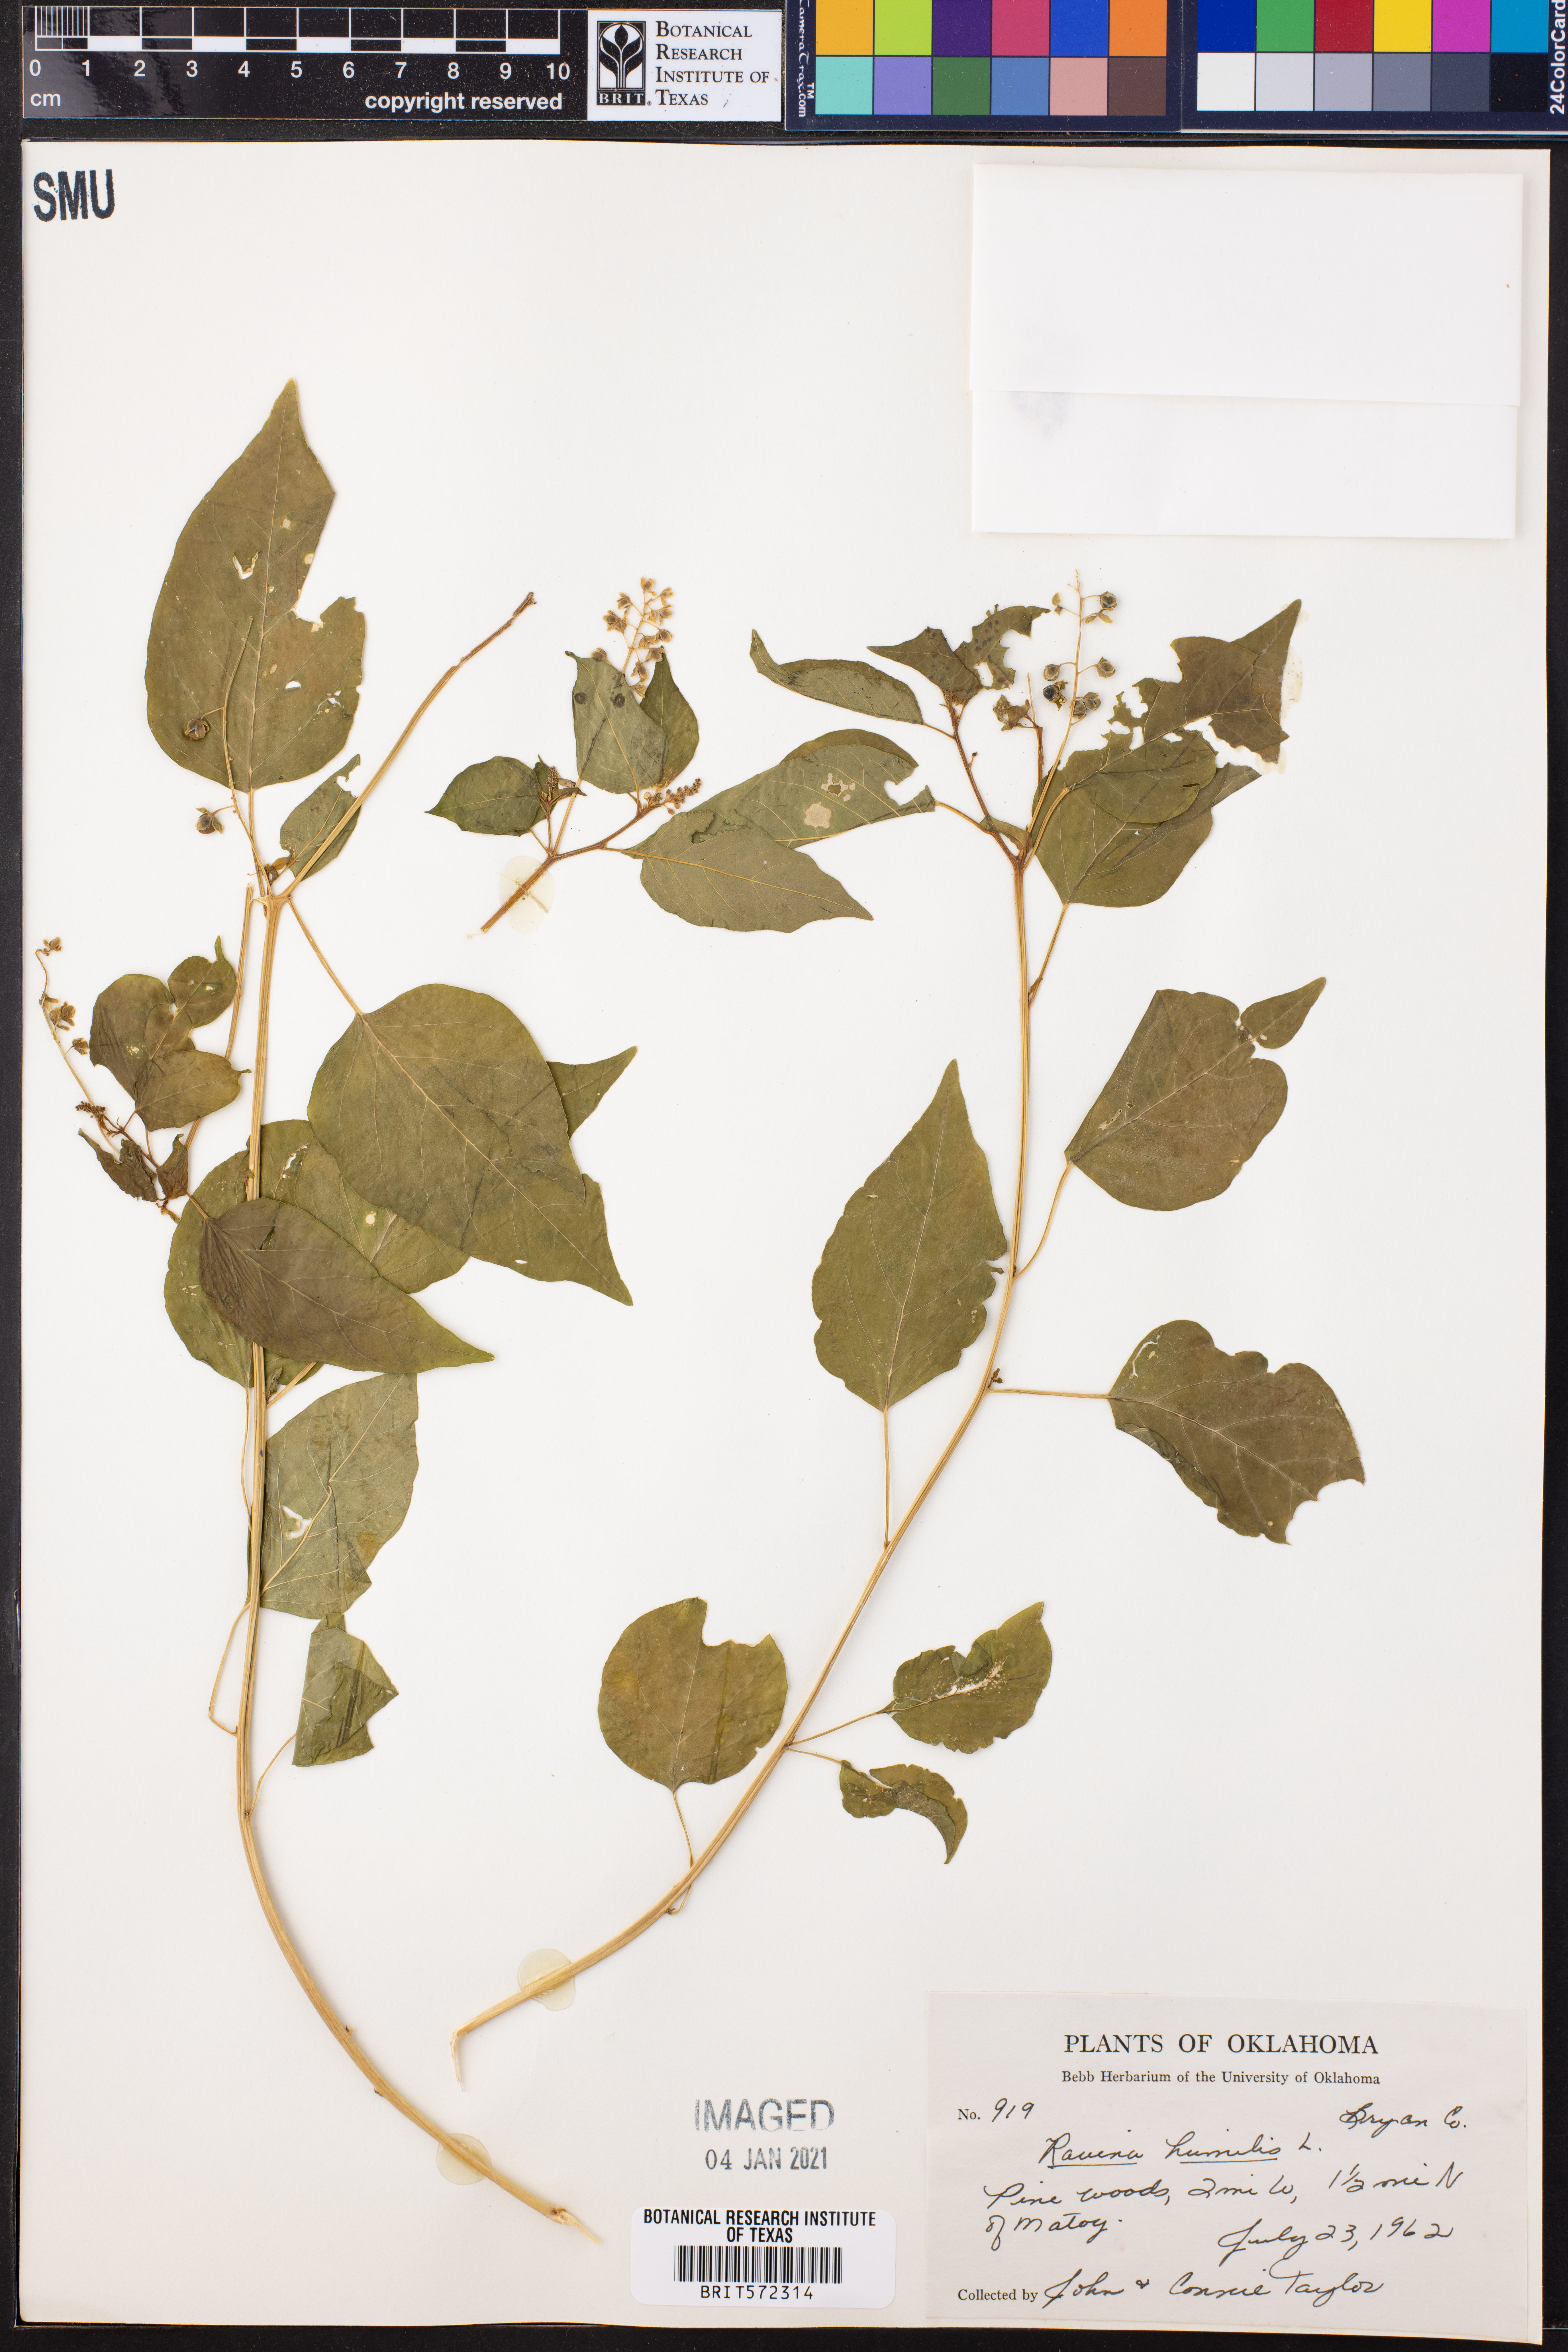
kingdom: Plantae
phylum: Tracheophyta
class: Magnoliopsida
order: Caryophyllales
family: Phytolaccaceae
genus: Rivina
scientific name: Rivina humilis
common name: Rougeplant
